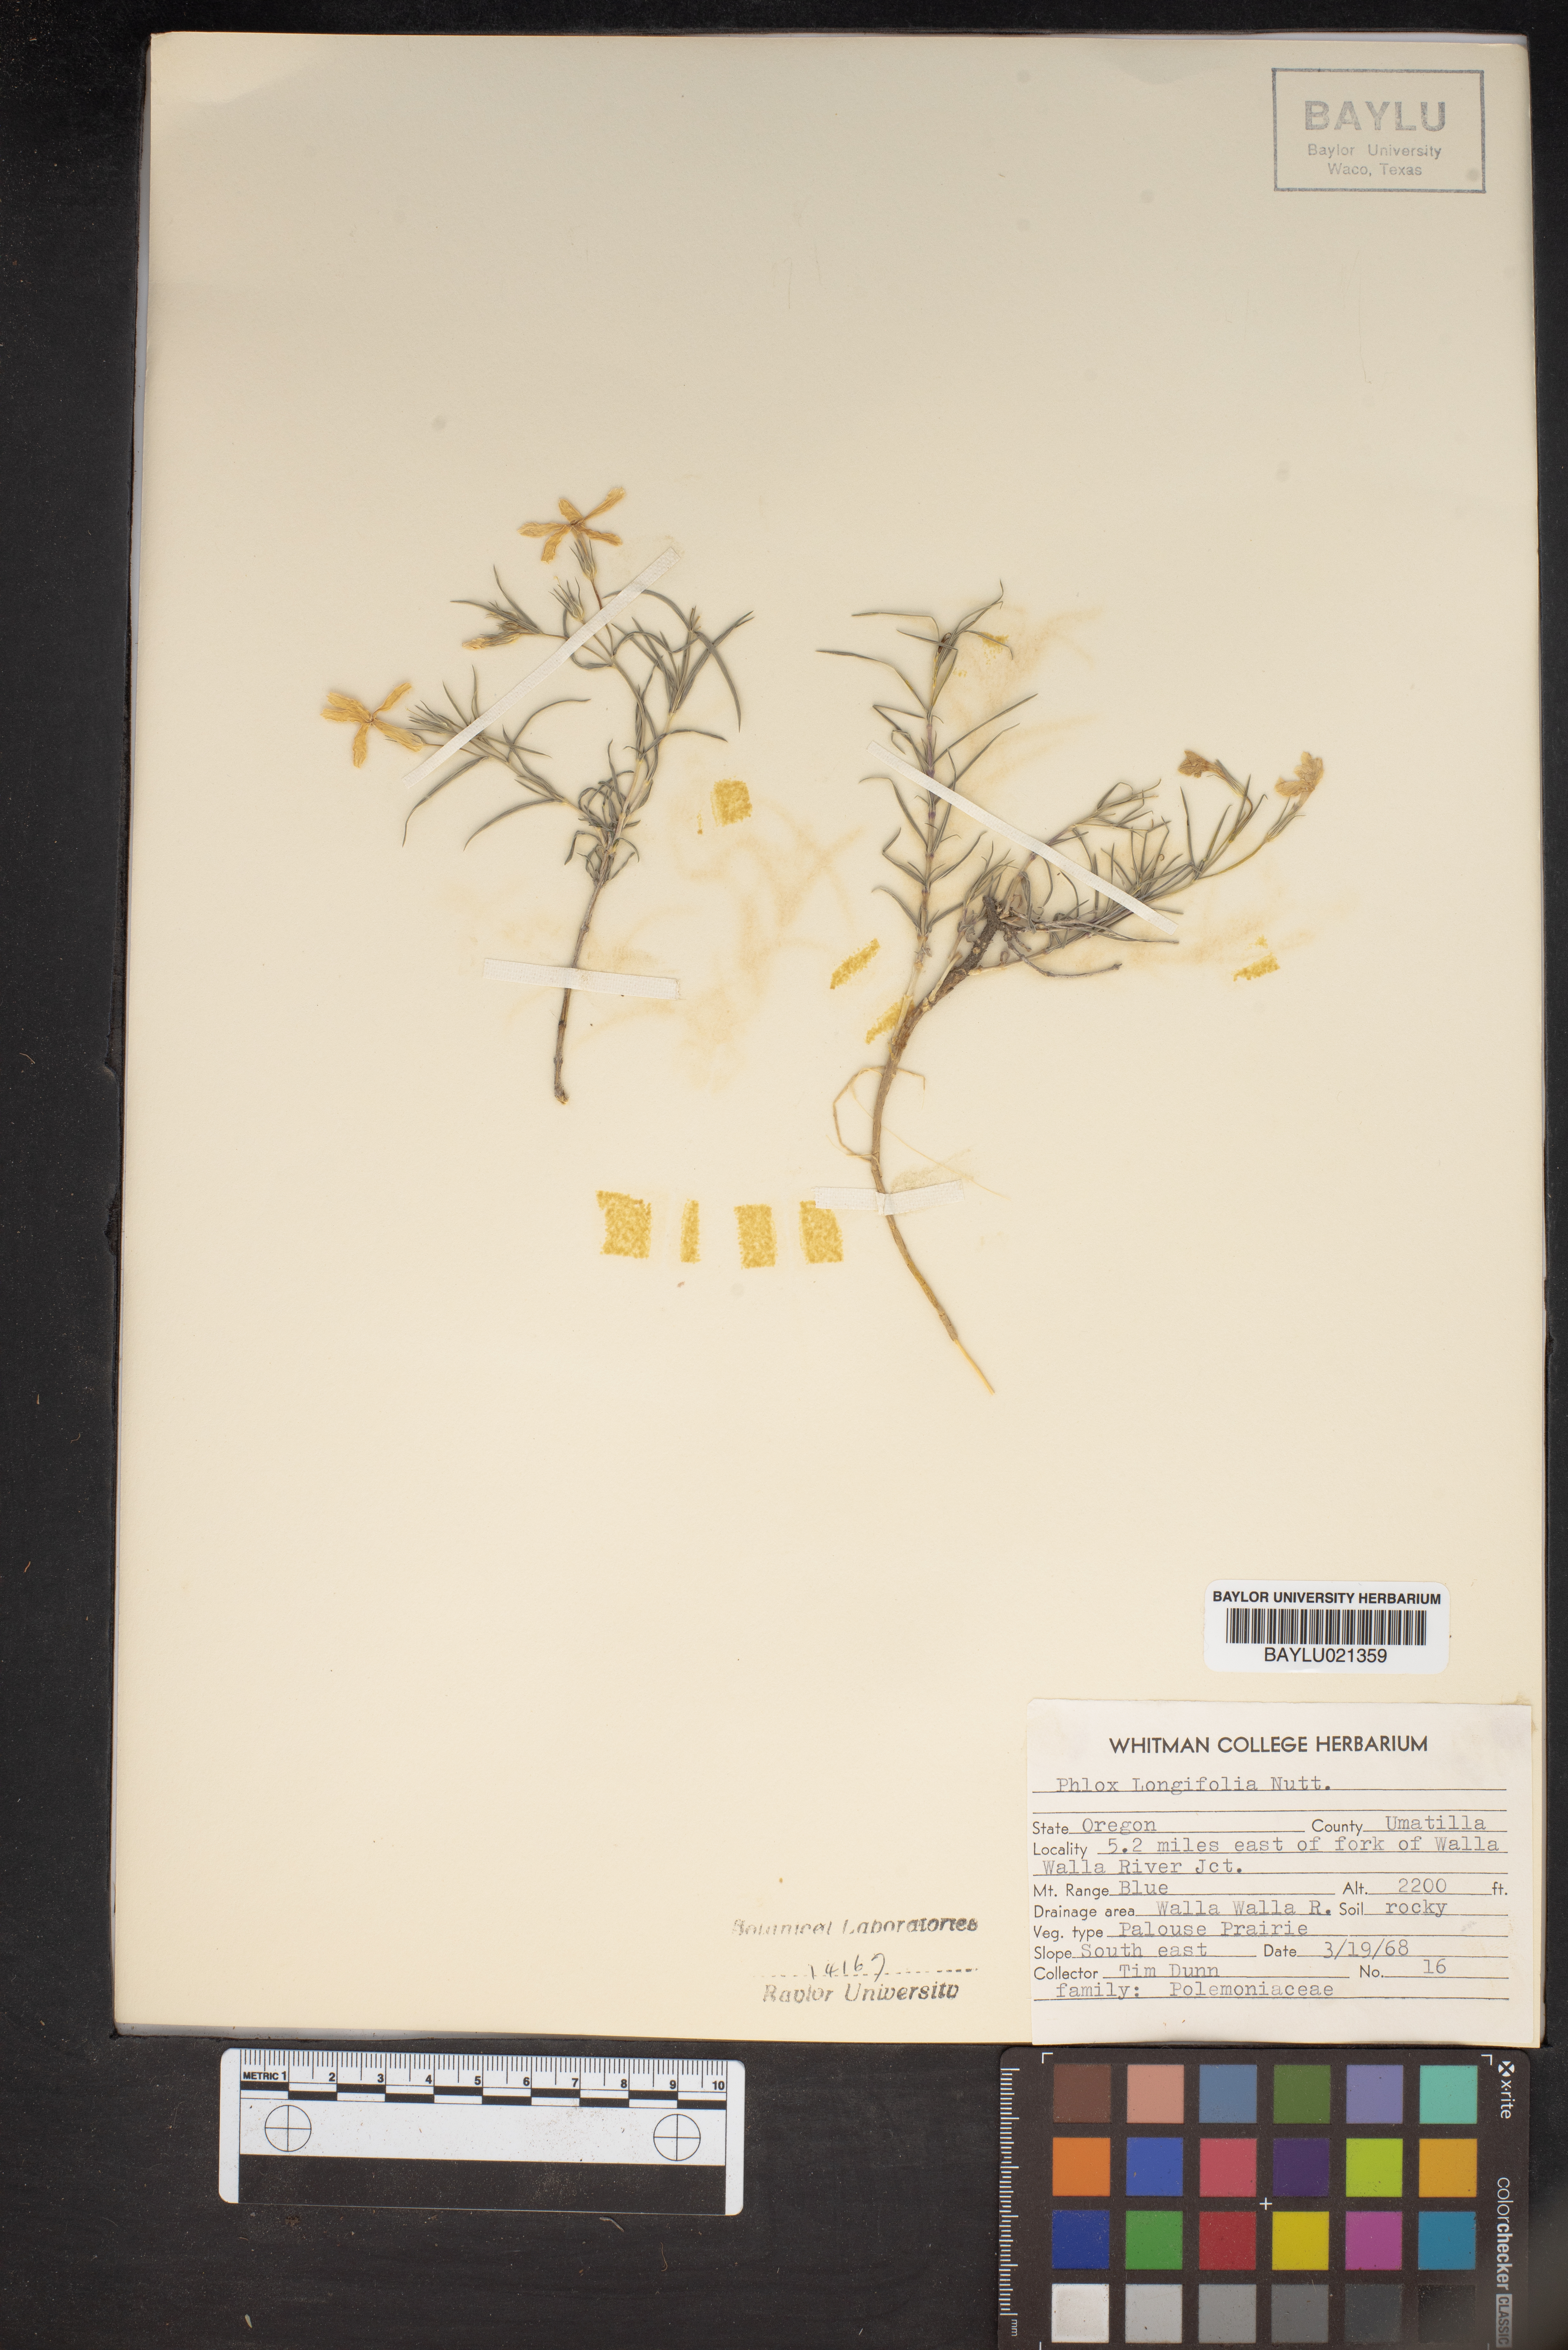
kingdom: Plantae
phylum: Tracheophyta
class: Magnoliopsida
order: Ericales
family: Polemoniaceae
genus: Phlox
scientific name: Phlox longifolia
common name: Longleaf phlox
